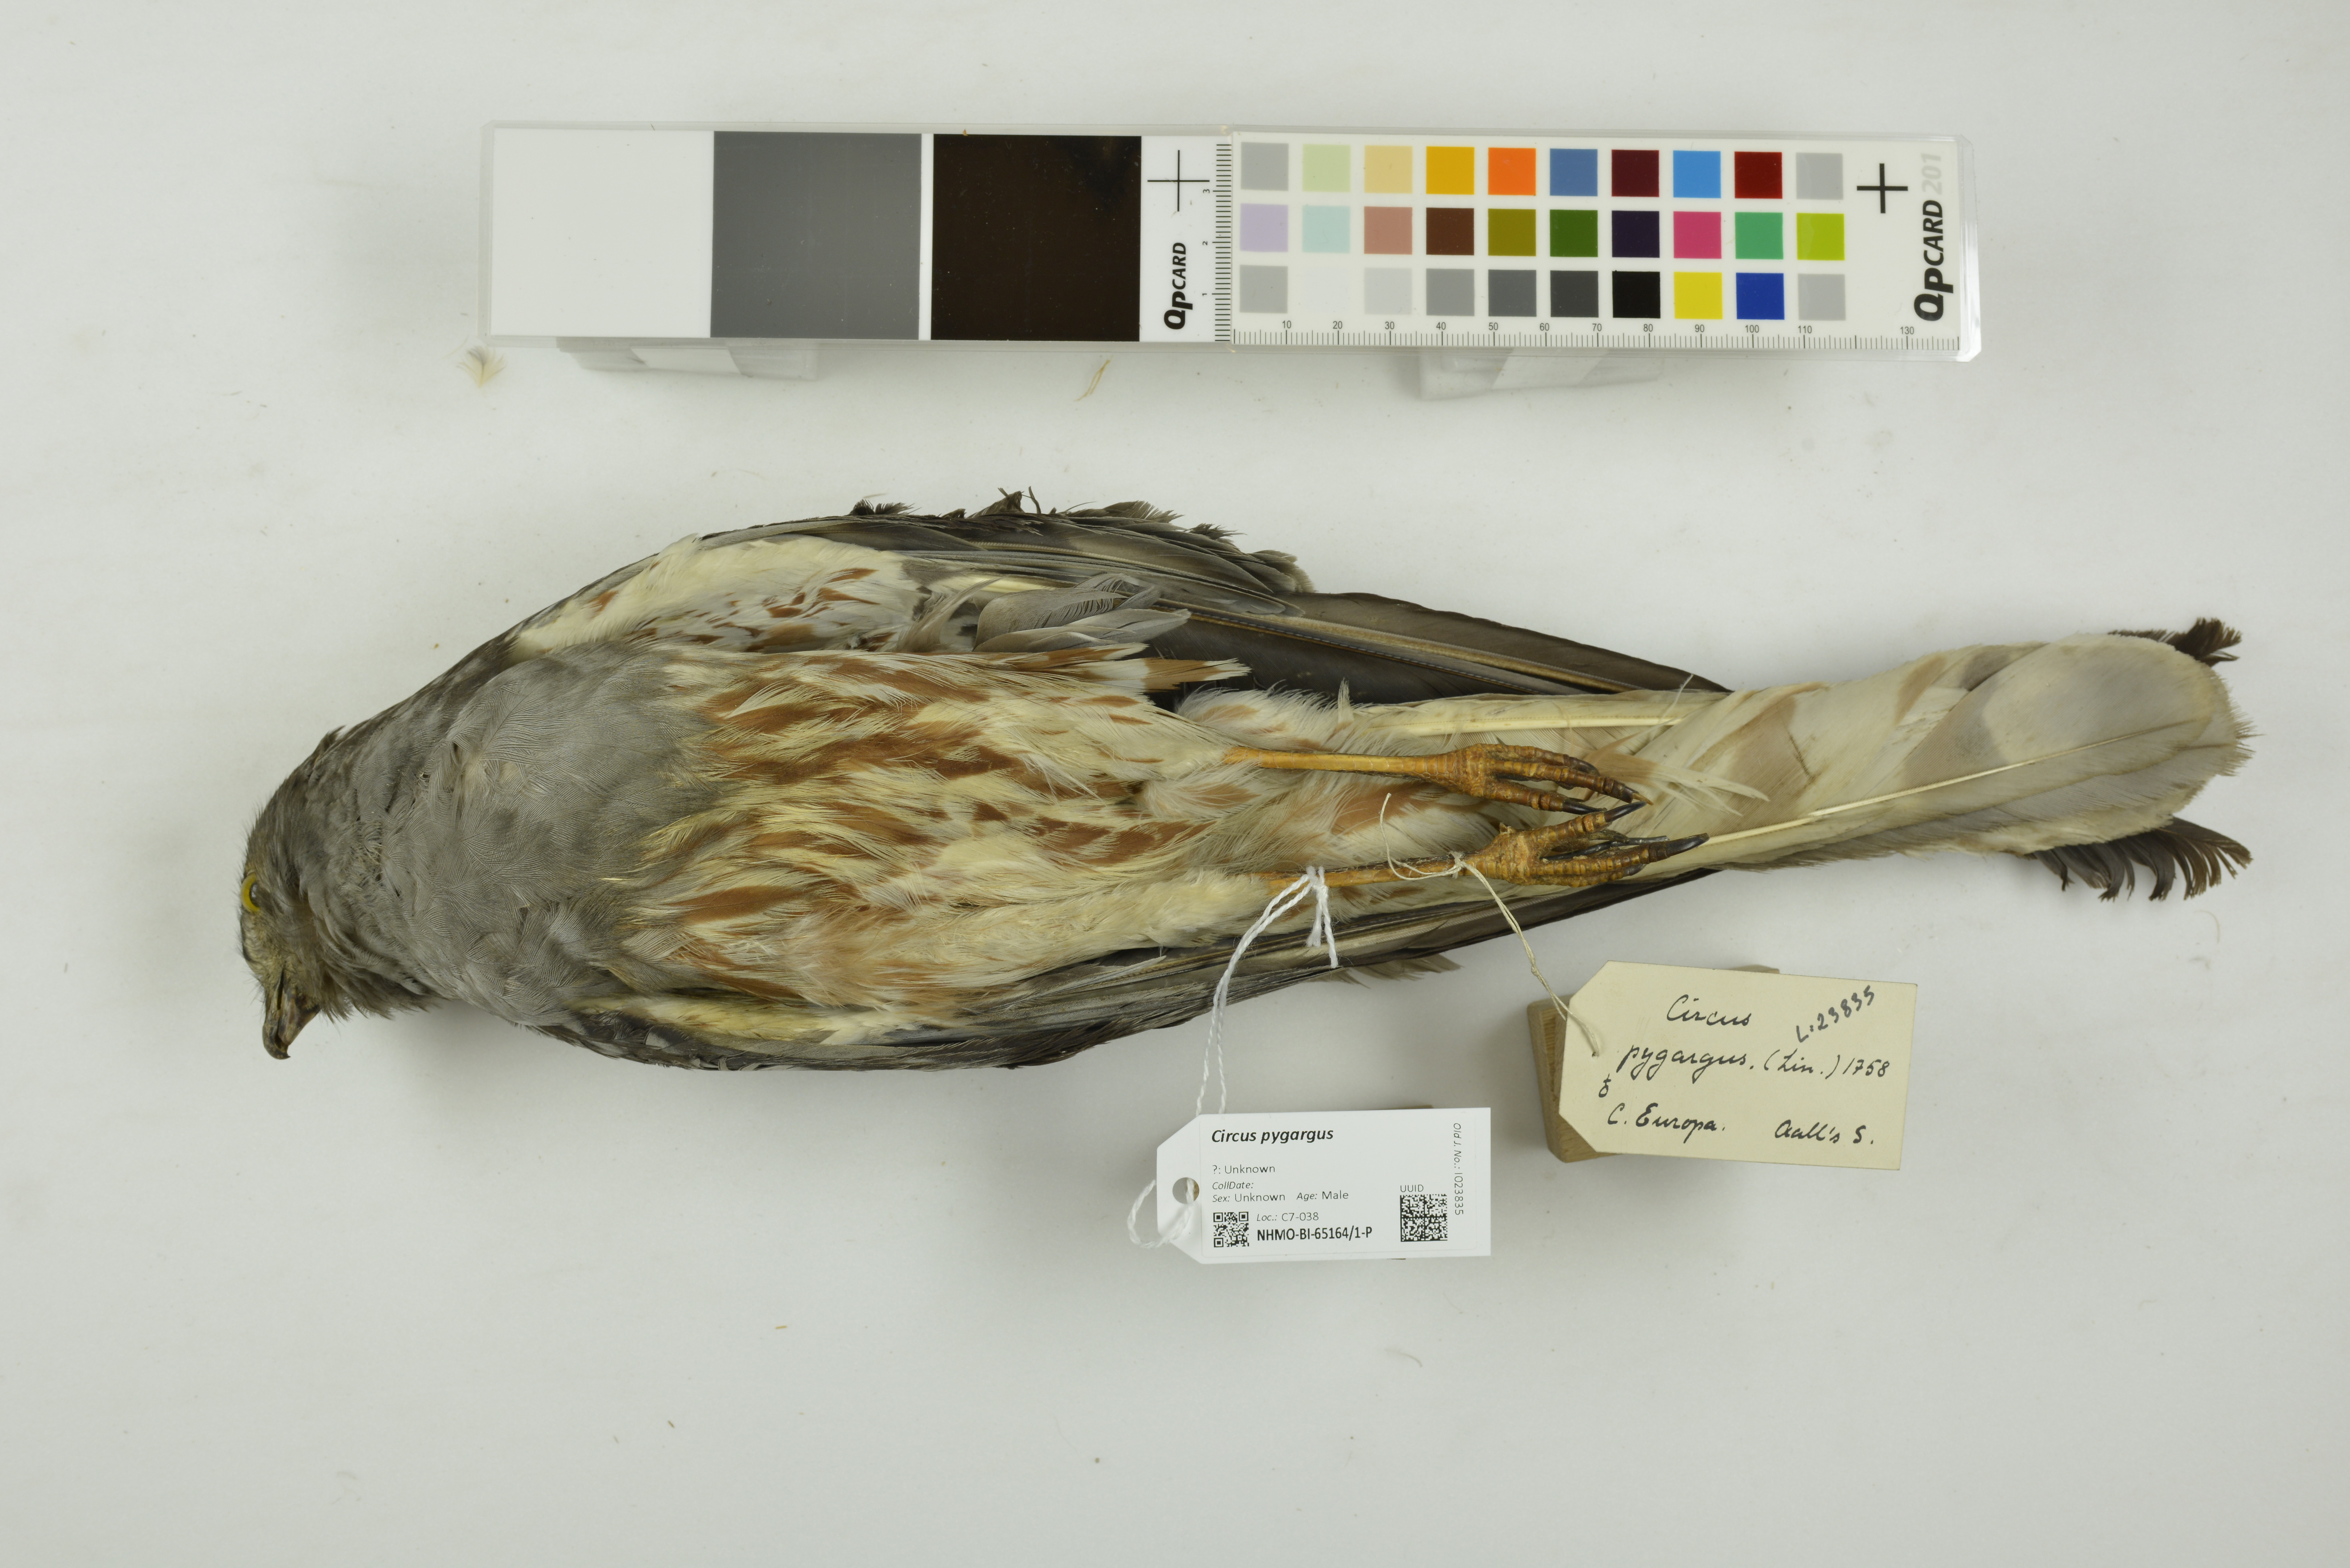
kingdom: Animalia
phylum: Chordata
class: Aves
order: Accipitriformes
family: Accipitridae
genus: Circus
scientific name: Circus pygargus
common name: Montagu's harrier
